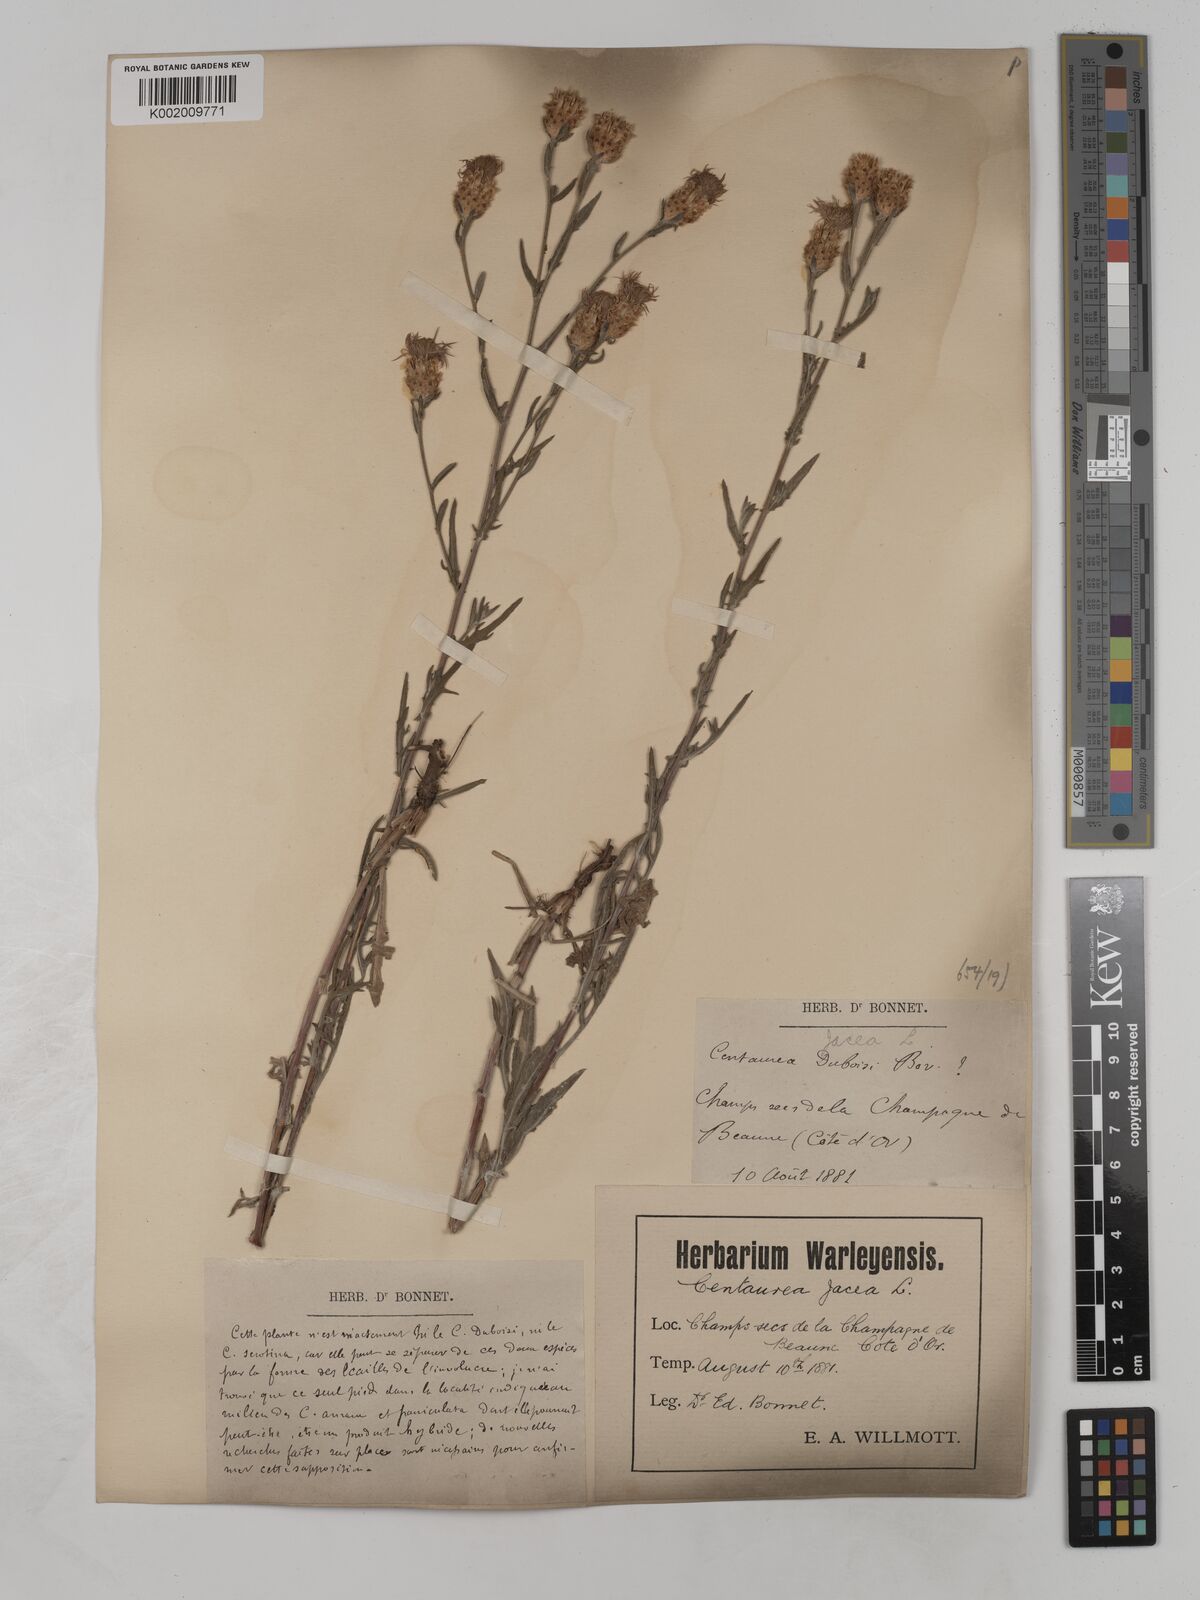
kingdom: Plantae
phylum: Tracheophyta
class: Magnoliopsida
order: Asterales
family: Asteraceae
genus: Centaurea
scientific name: Centaurea timbalii
